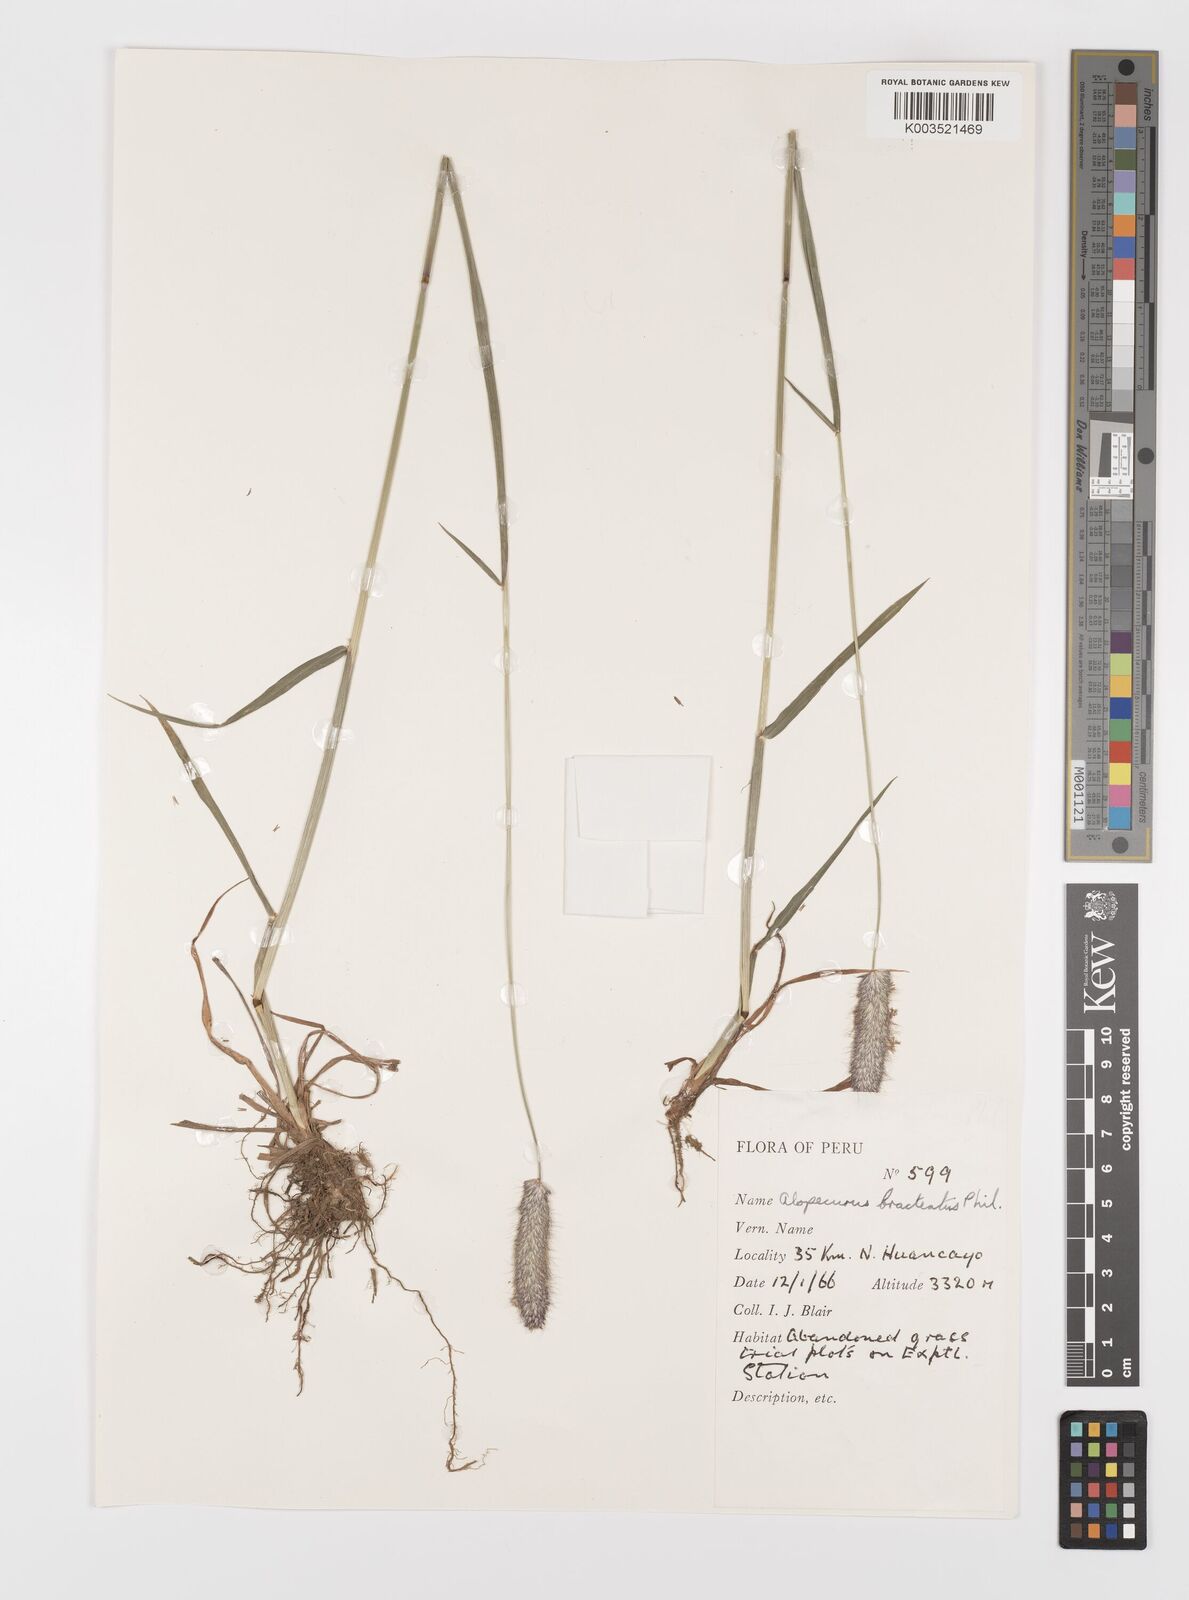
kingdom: Plantae
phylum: Tracheophyta
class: Liliopsida
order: Poales
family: Poaceae
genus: Alopecurus
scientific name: Alopecurus pratensis
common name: Meadow foxtail
